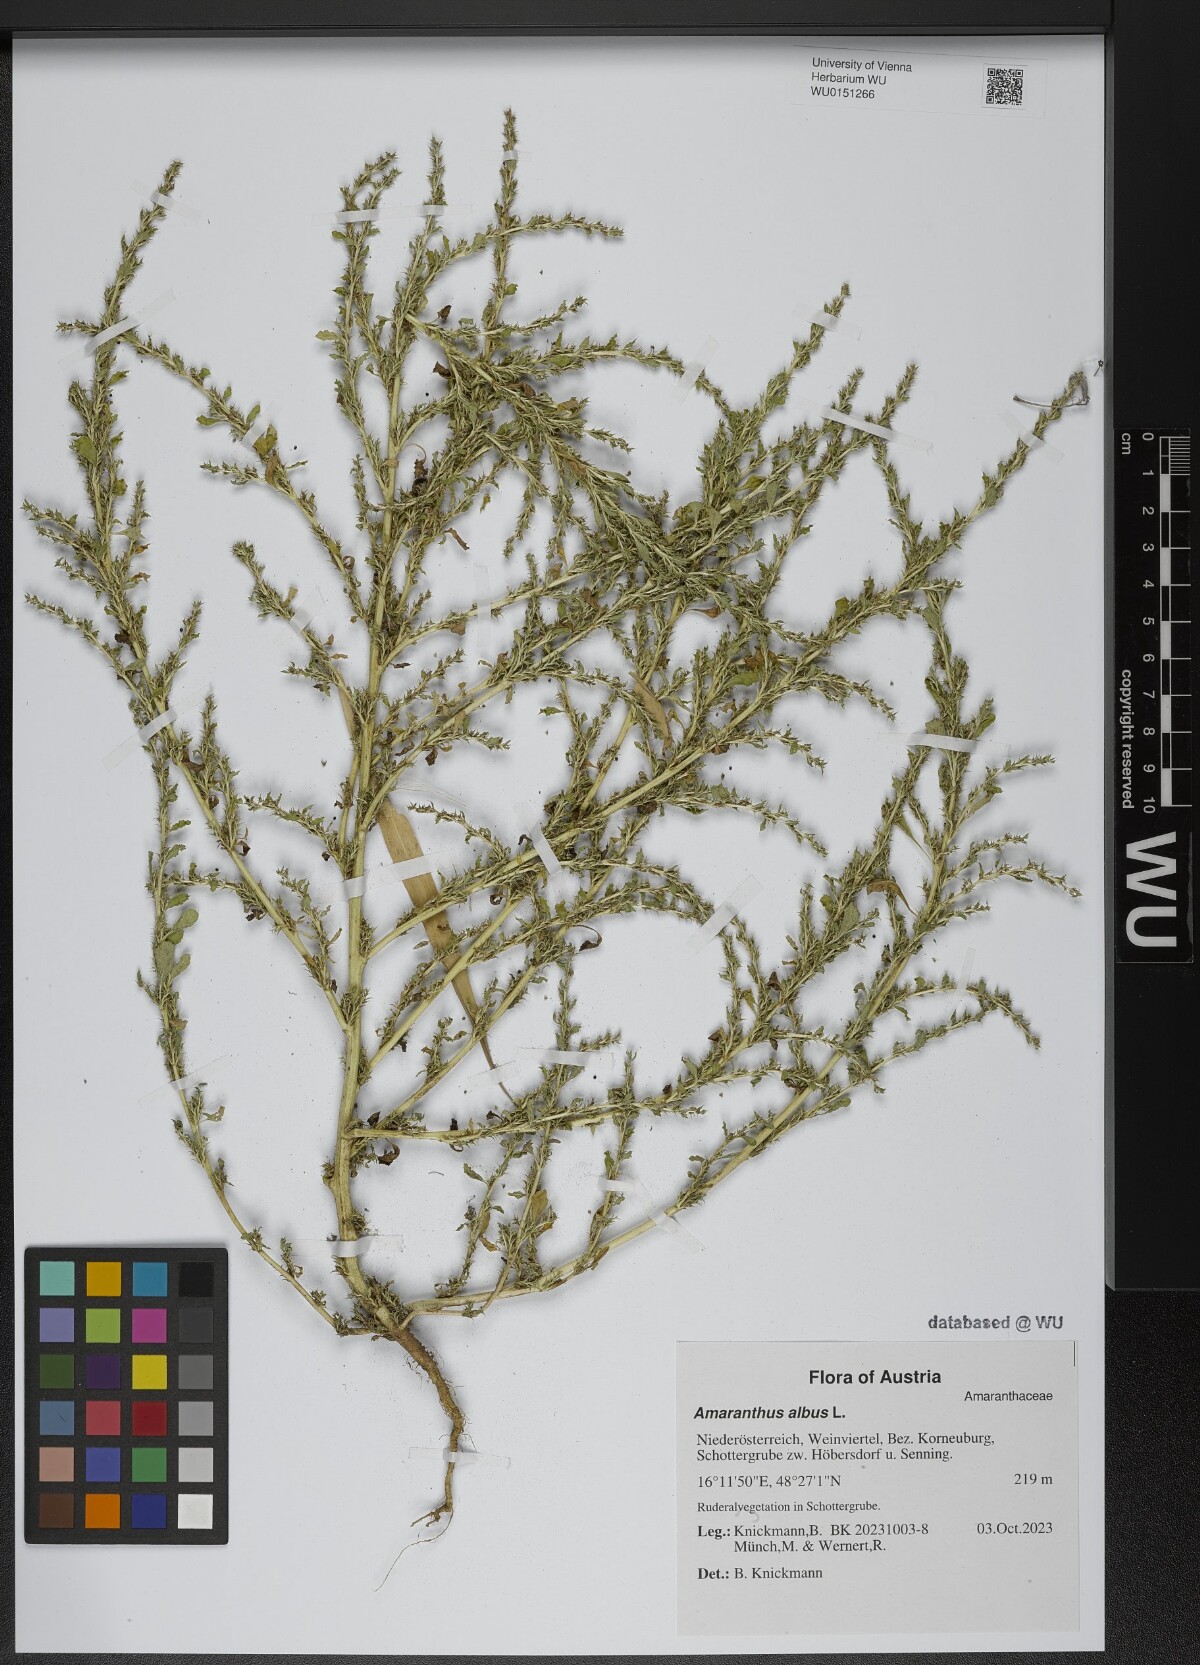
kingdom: Plantae
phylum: Tracheophyta
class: Magnoliopsida
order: Caryophyllales
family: Amaranthaceae
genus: Amaranthus
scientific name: Amaranthus albus
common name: White pigweed
